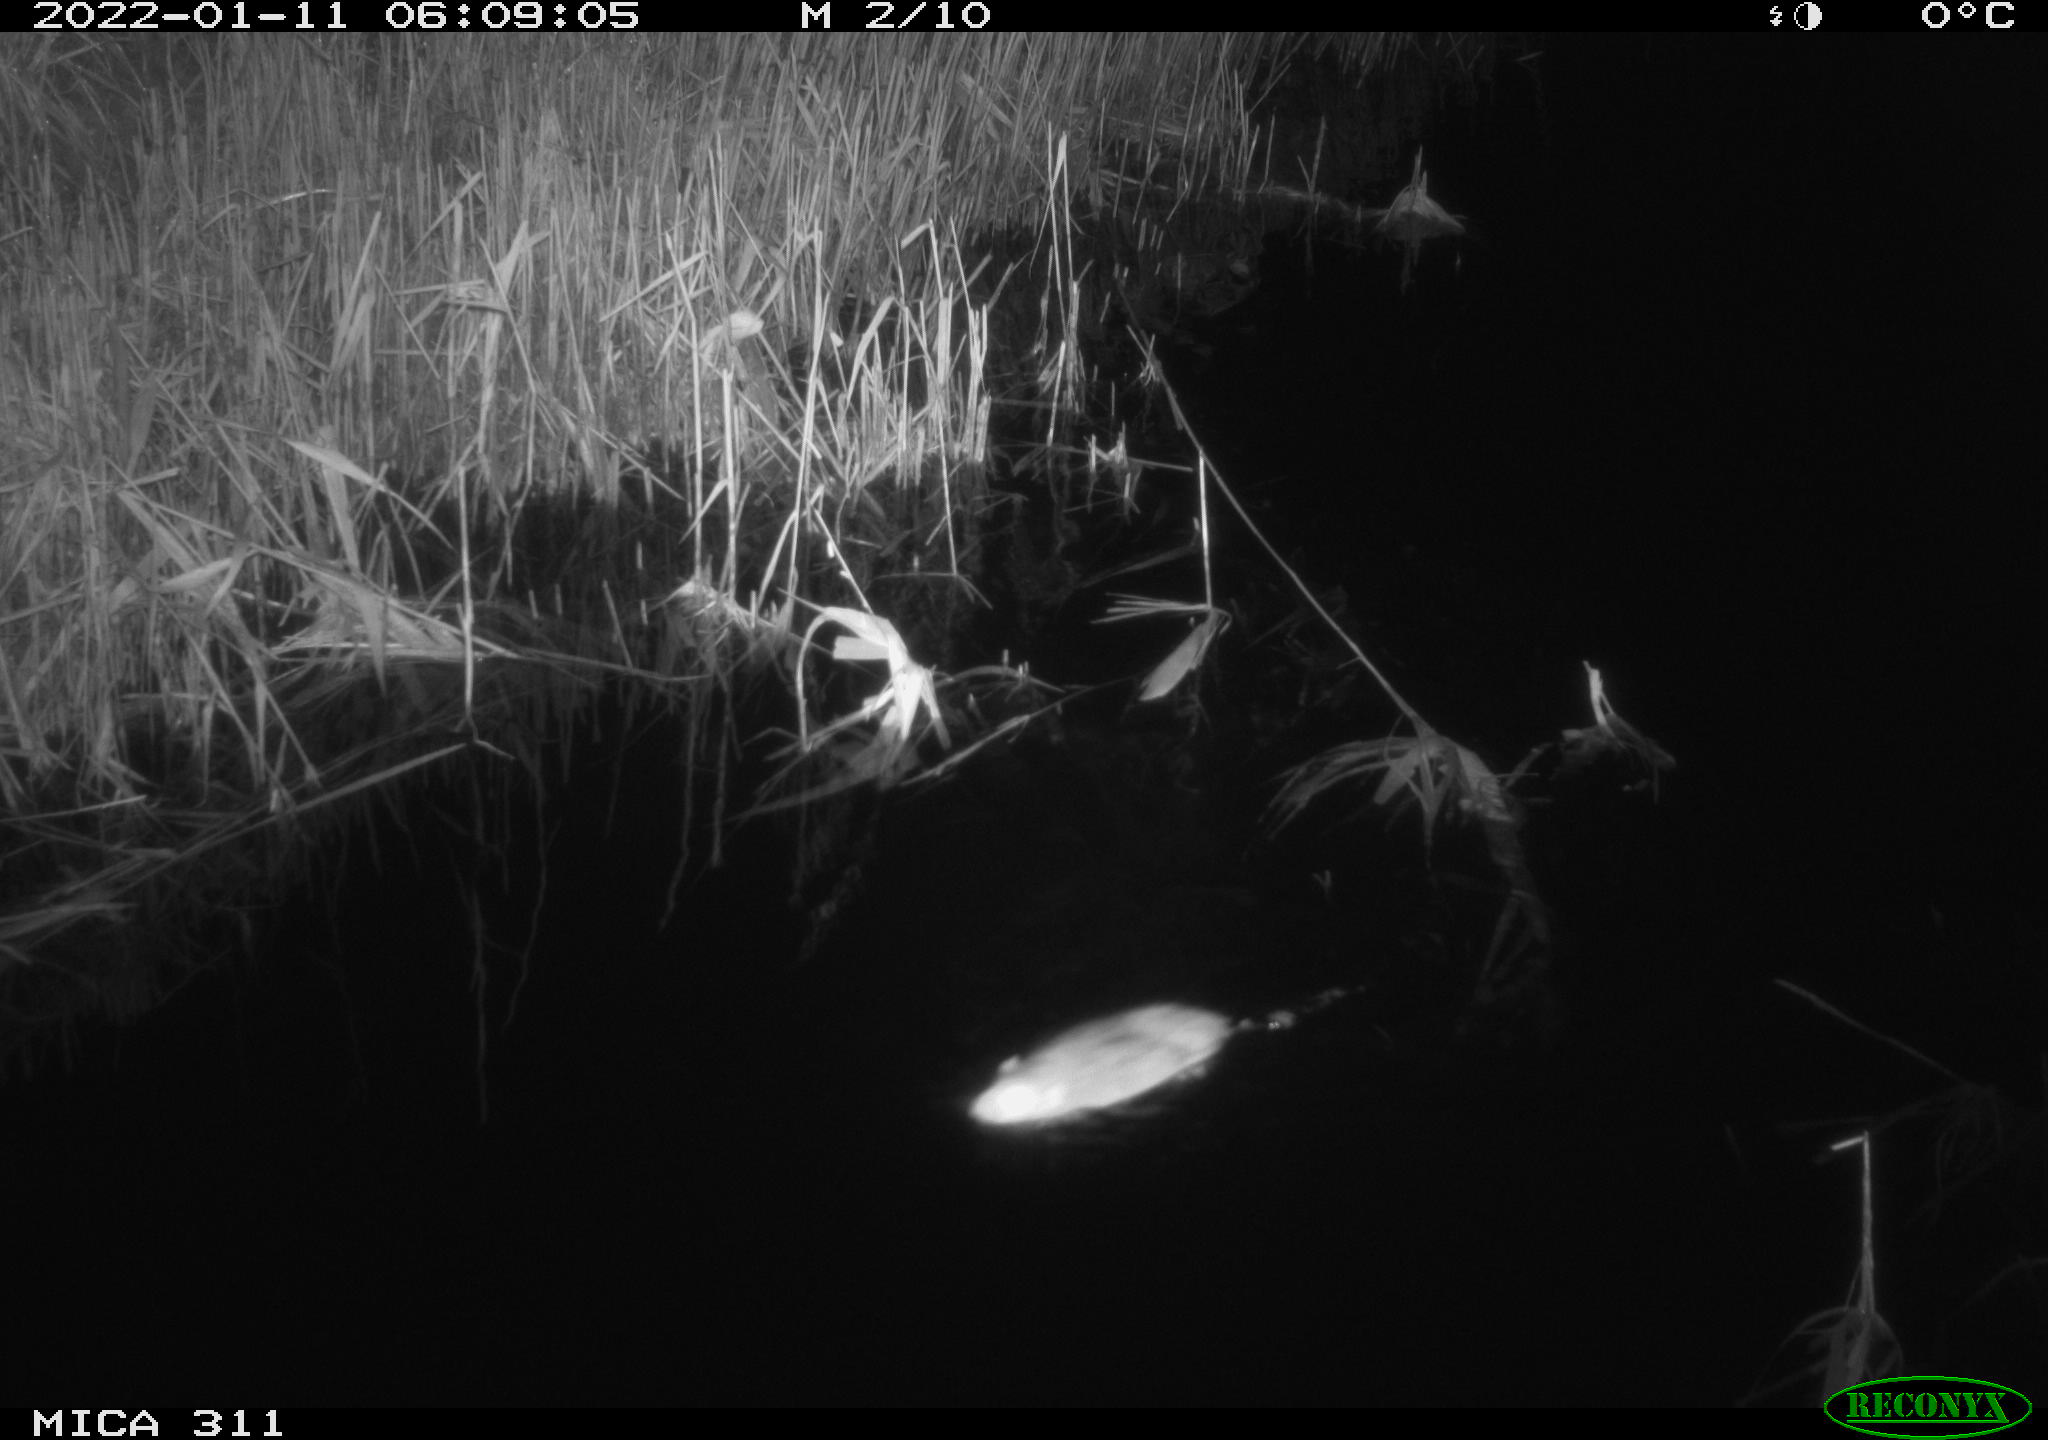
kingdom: Animalia
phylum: Chordata
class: Mammalia
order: Rodentia
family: Muridae
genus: Rattus
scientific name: Rattus norvegicus
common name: Brown rat
